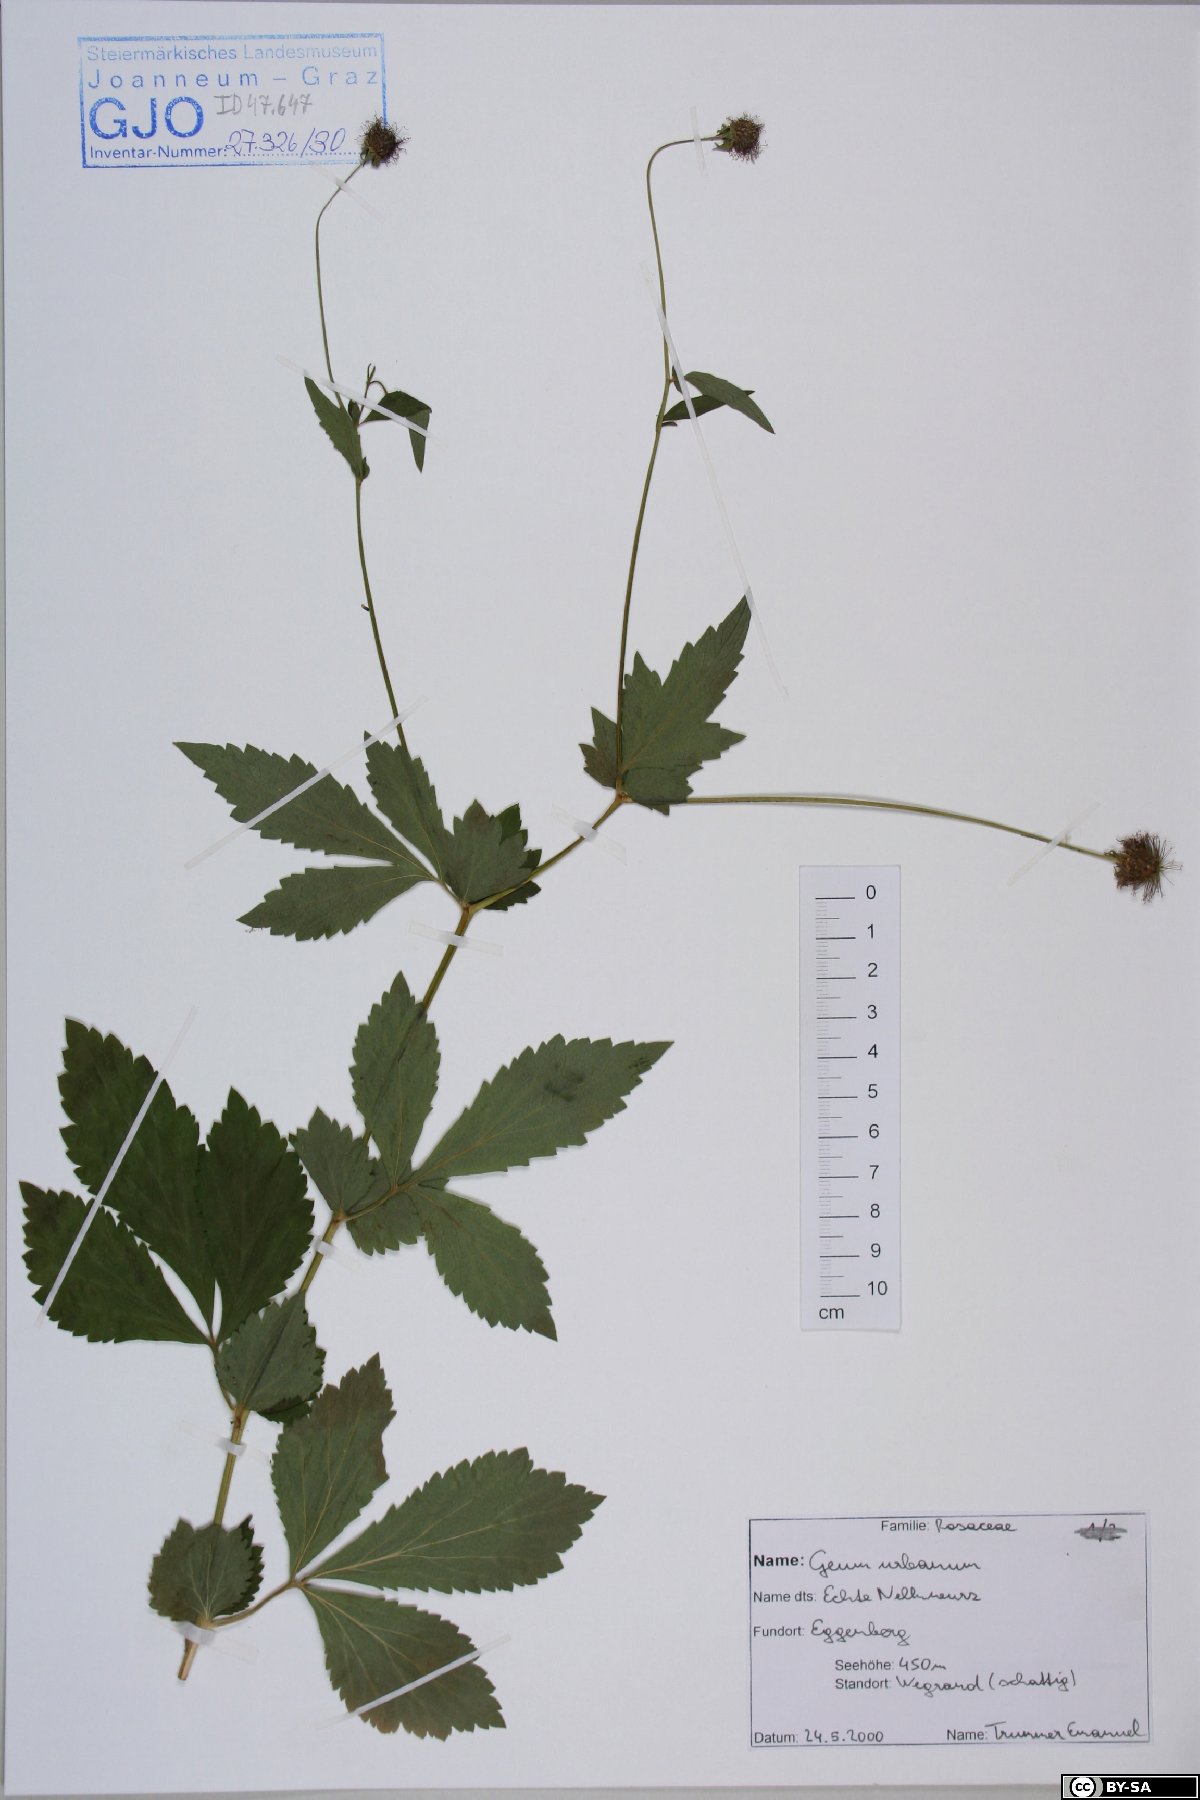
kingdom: Plantae
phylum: Tracheophyta
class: Magnoliopsida
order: Rosales
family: Rosaceae
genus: Geum
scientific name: Geum urbanum
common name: Wood avens
